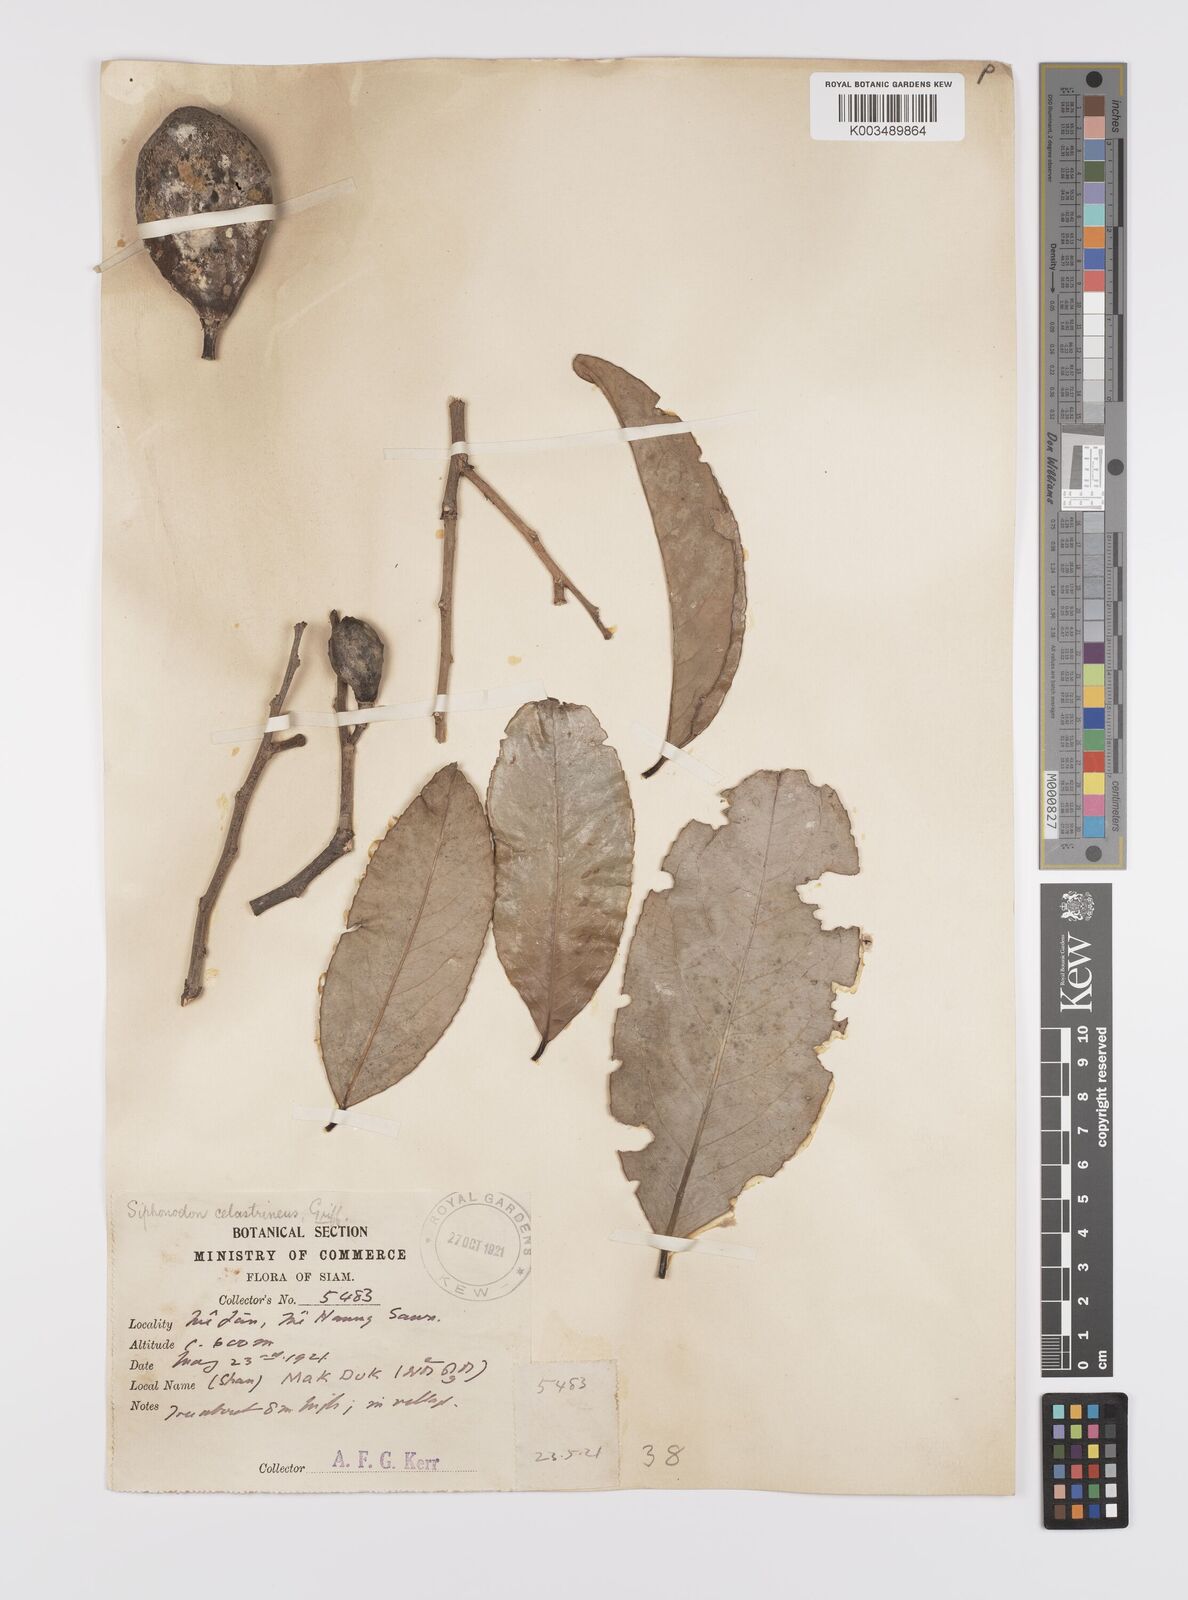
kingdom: Plantae
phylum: Tracheophyta
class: Magnoliopsida
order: Celastrales
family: Celastraceae
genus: Siphonodon
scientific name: Siphonodon celastrineus
